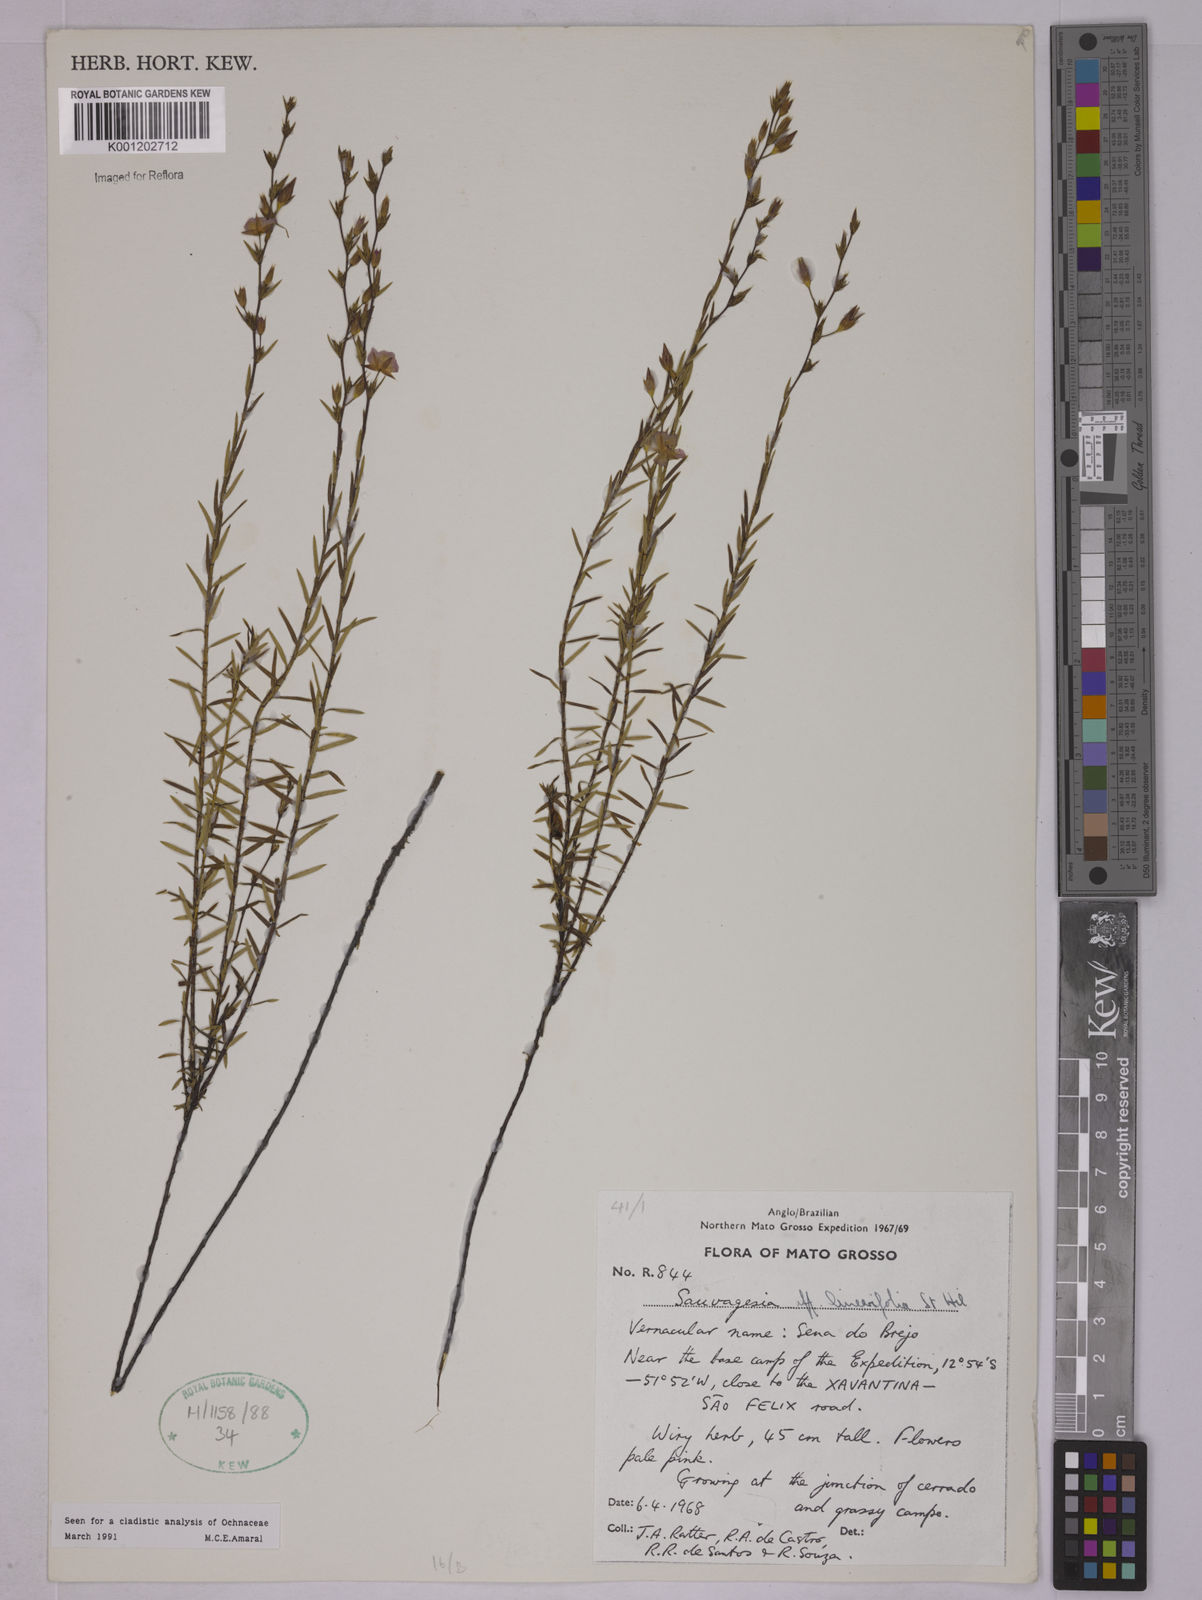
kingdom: Plantae
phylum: Tracheophyta
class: Magnoliopsida
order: Malpighiales
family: Ochnaceae
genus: Sauvagesia
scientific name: Sauvagesia linearifolia
